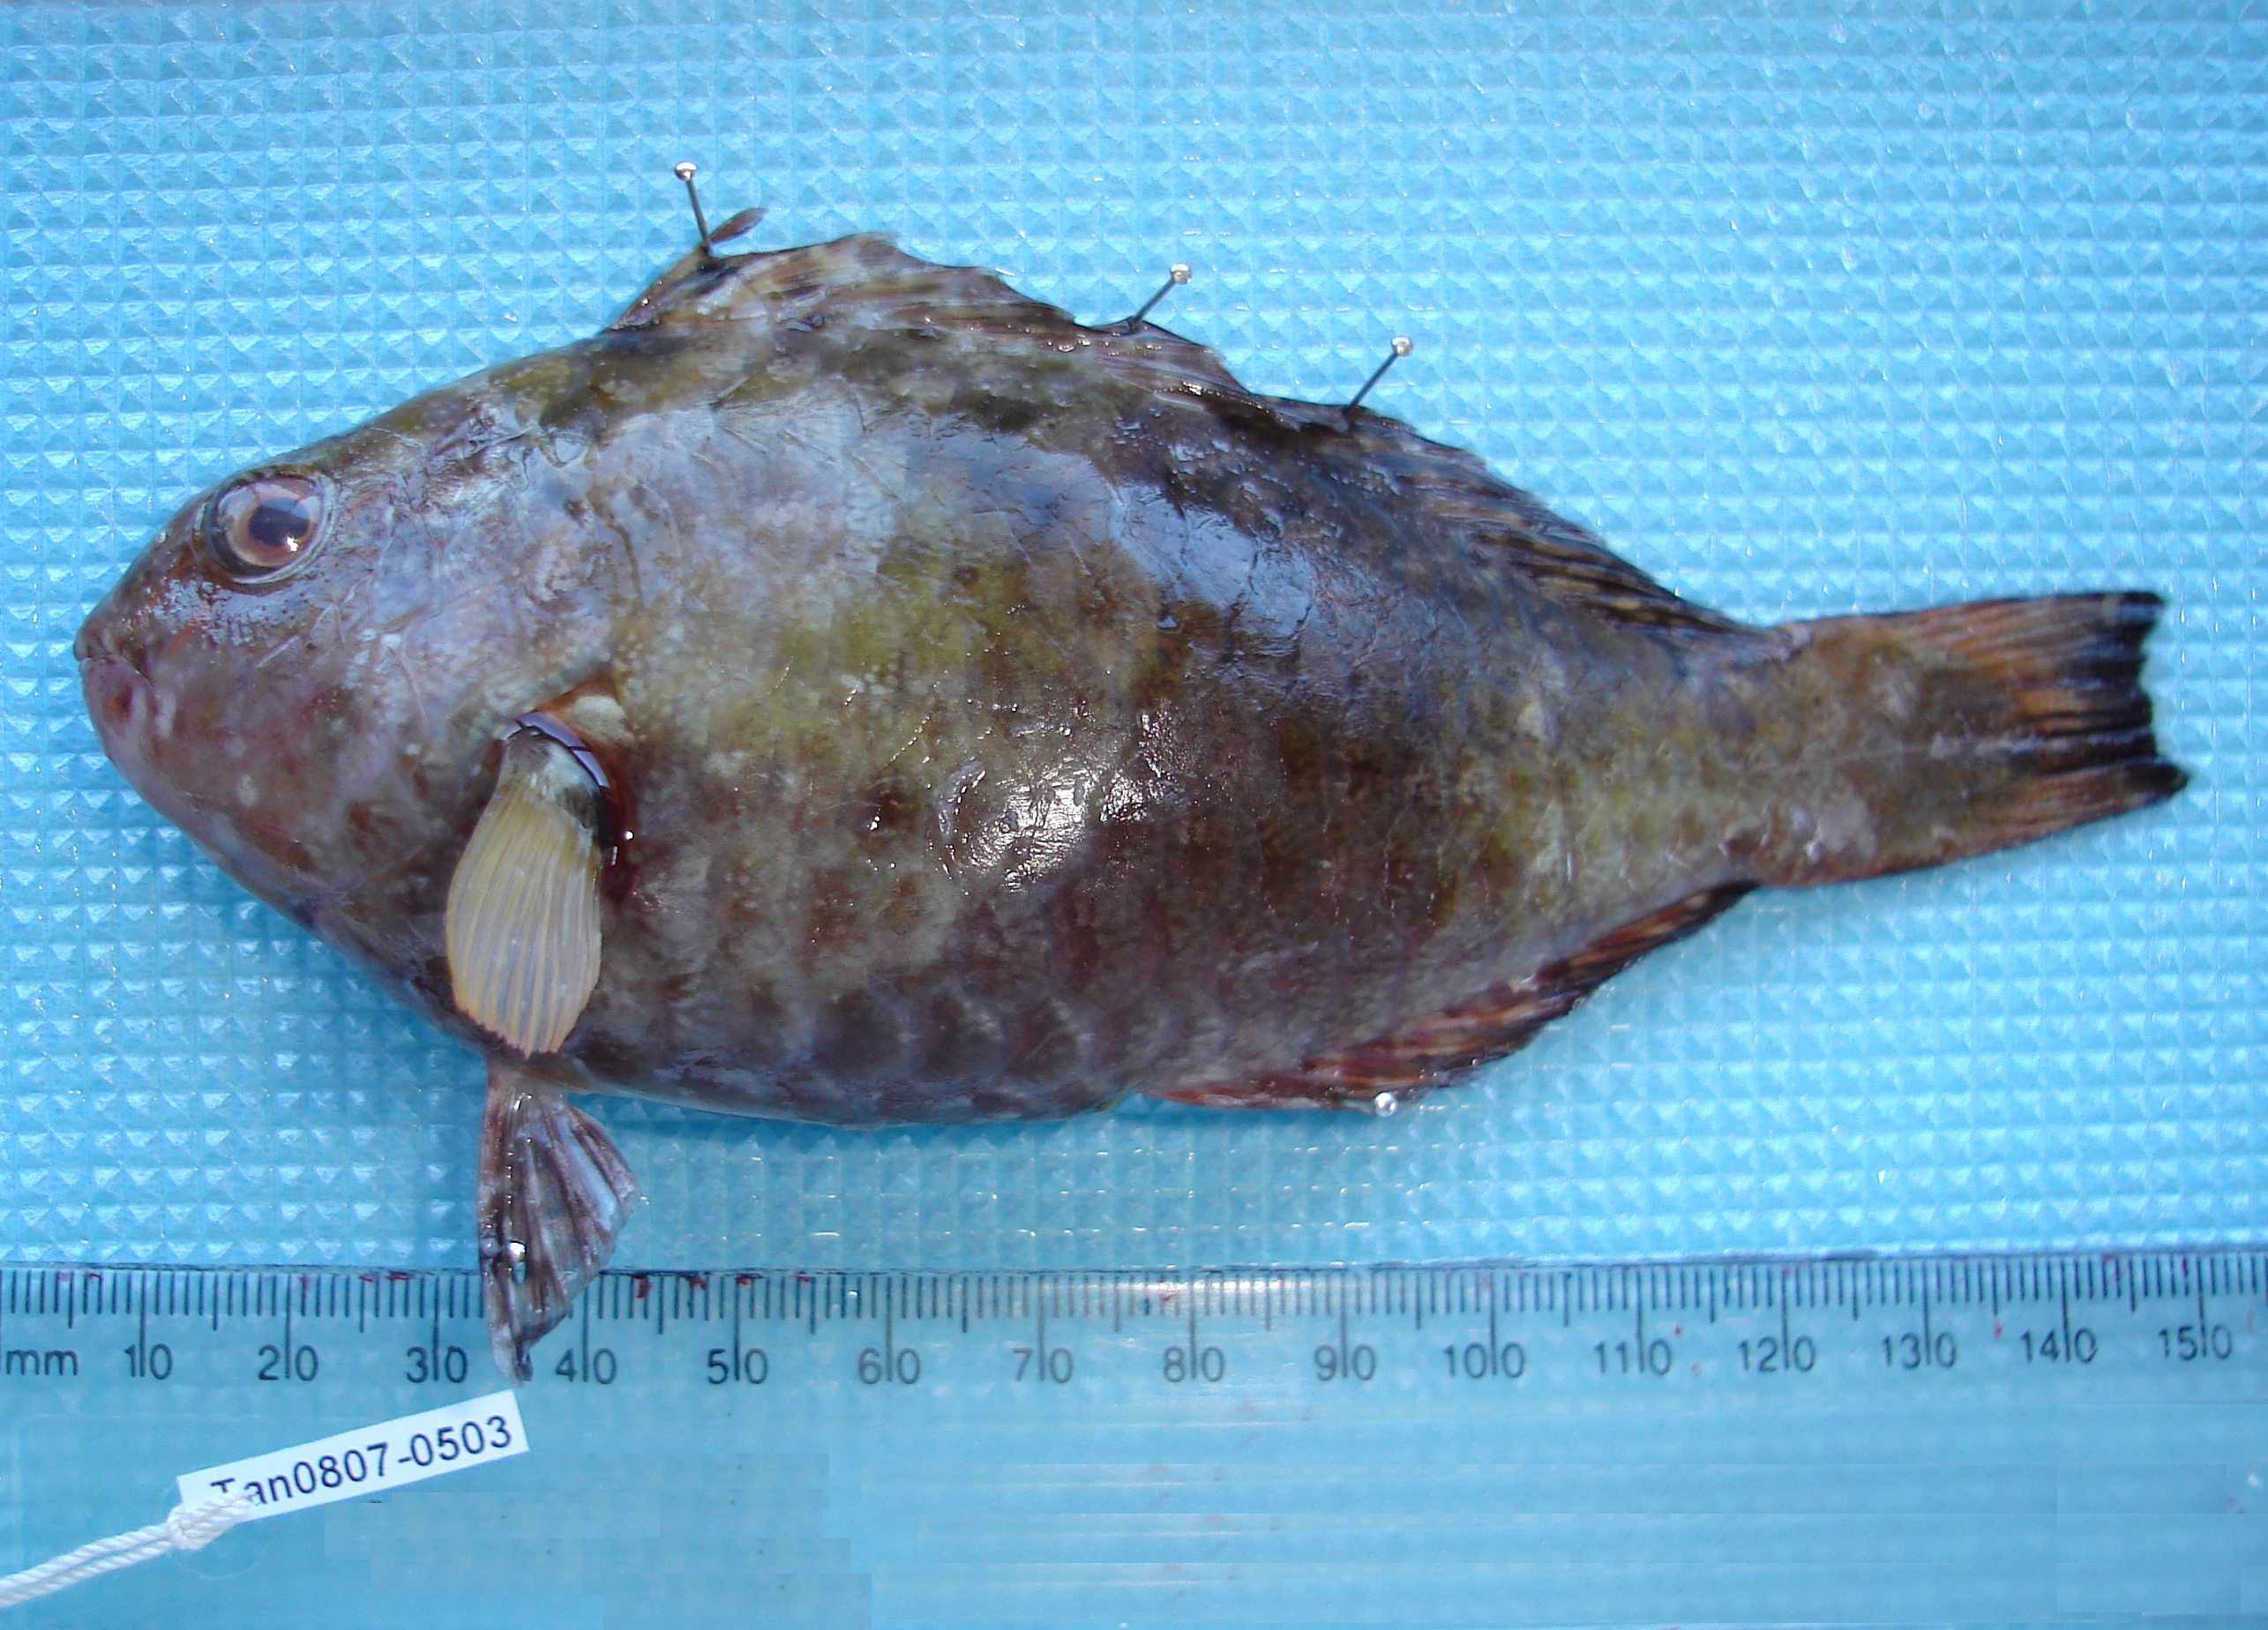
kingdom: Animalia
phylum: Chordata
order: Perciformes
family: Scaridae
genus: Calotomus
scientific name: Calotomus carolinus
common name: Bucktooth
